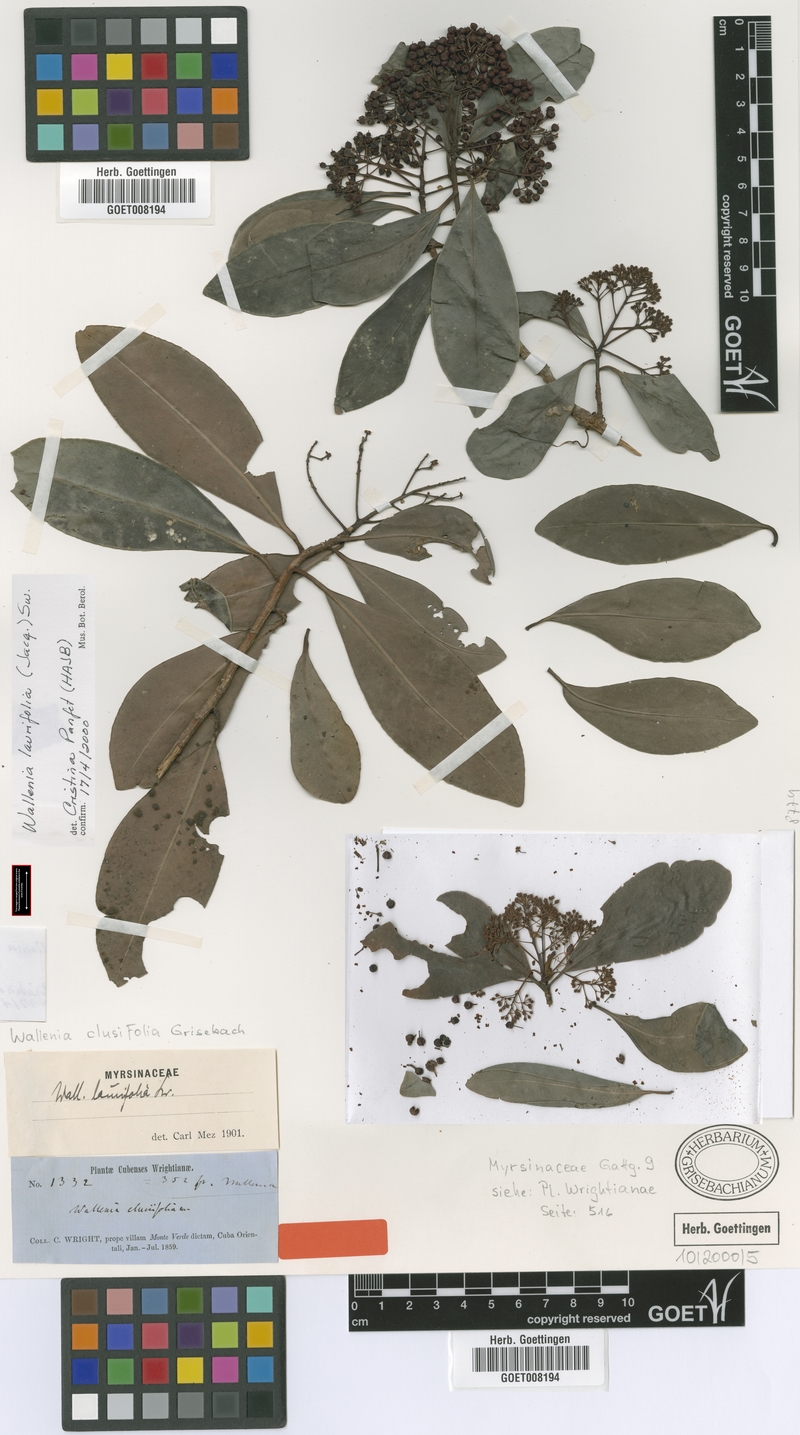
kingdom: Plantae
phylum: Tracheophyta
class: Magnoliopsida
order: Ericales
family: Primulaceae
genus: Wallenia
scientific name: Wallenia laurifolia
